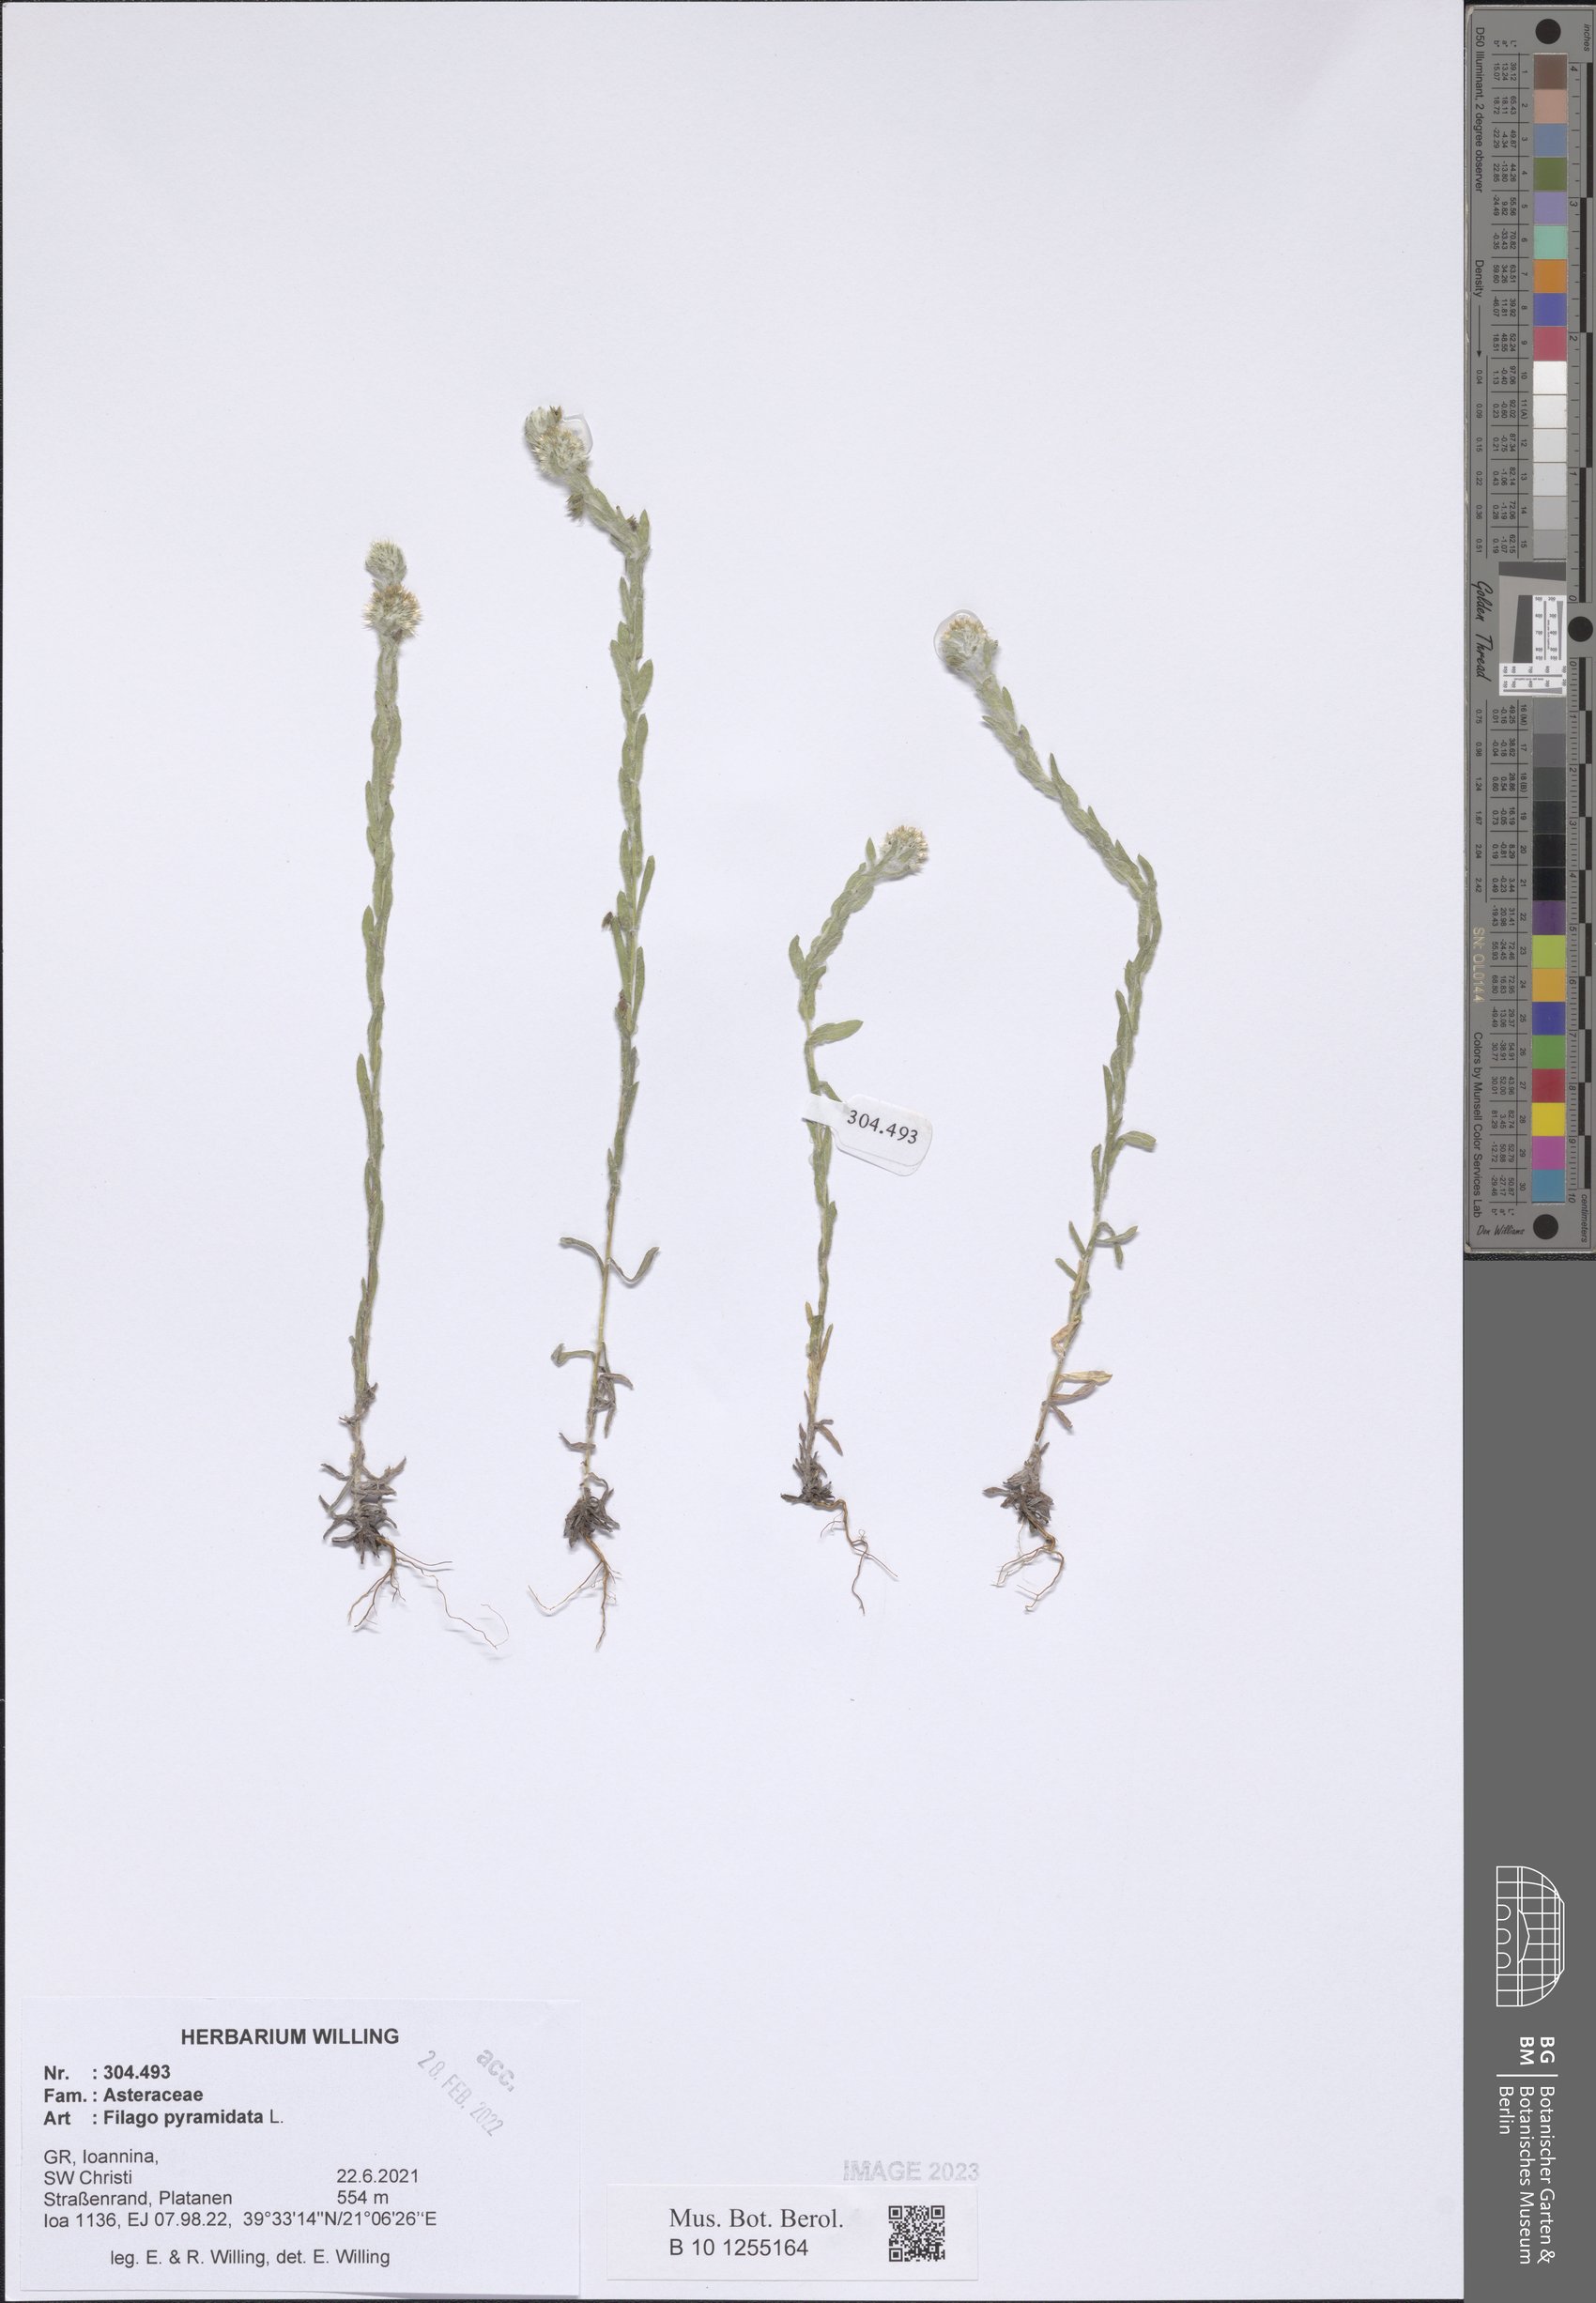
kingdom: Plantae
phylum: Tracheophyta
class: Magnoliopsida
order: Asterales
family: Asteraceae
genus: Filago
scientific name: Filago pyramidata
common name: Broad-leaved cudweed
